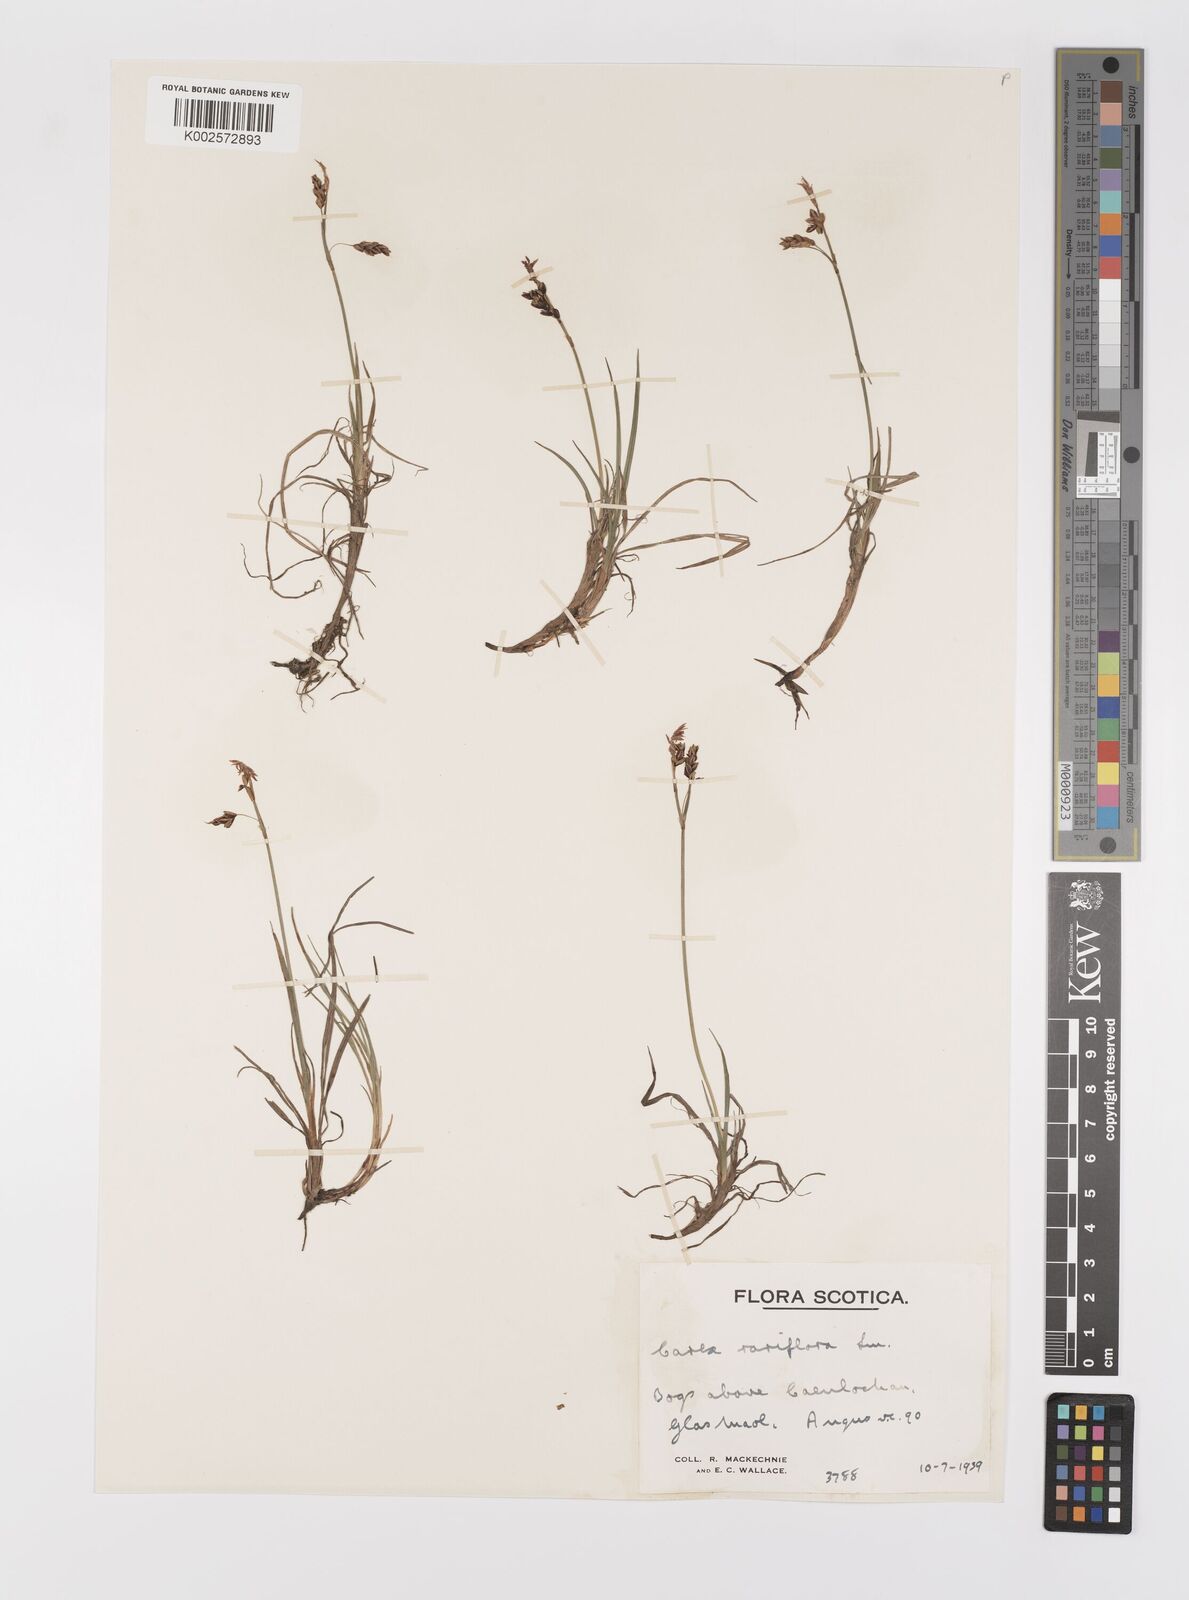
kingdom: Plantae
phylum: Tracheophyta
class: Liliopsida
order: Poales
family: Cyperaceae
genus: Carex
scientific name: Carex rariflora
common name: Loose-flowered alpine sedge
